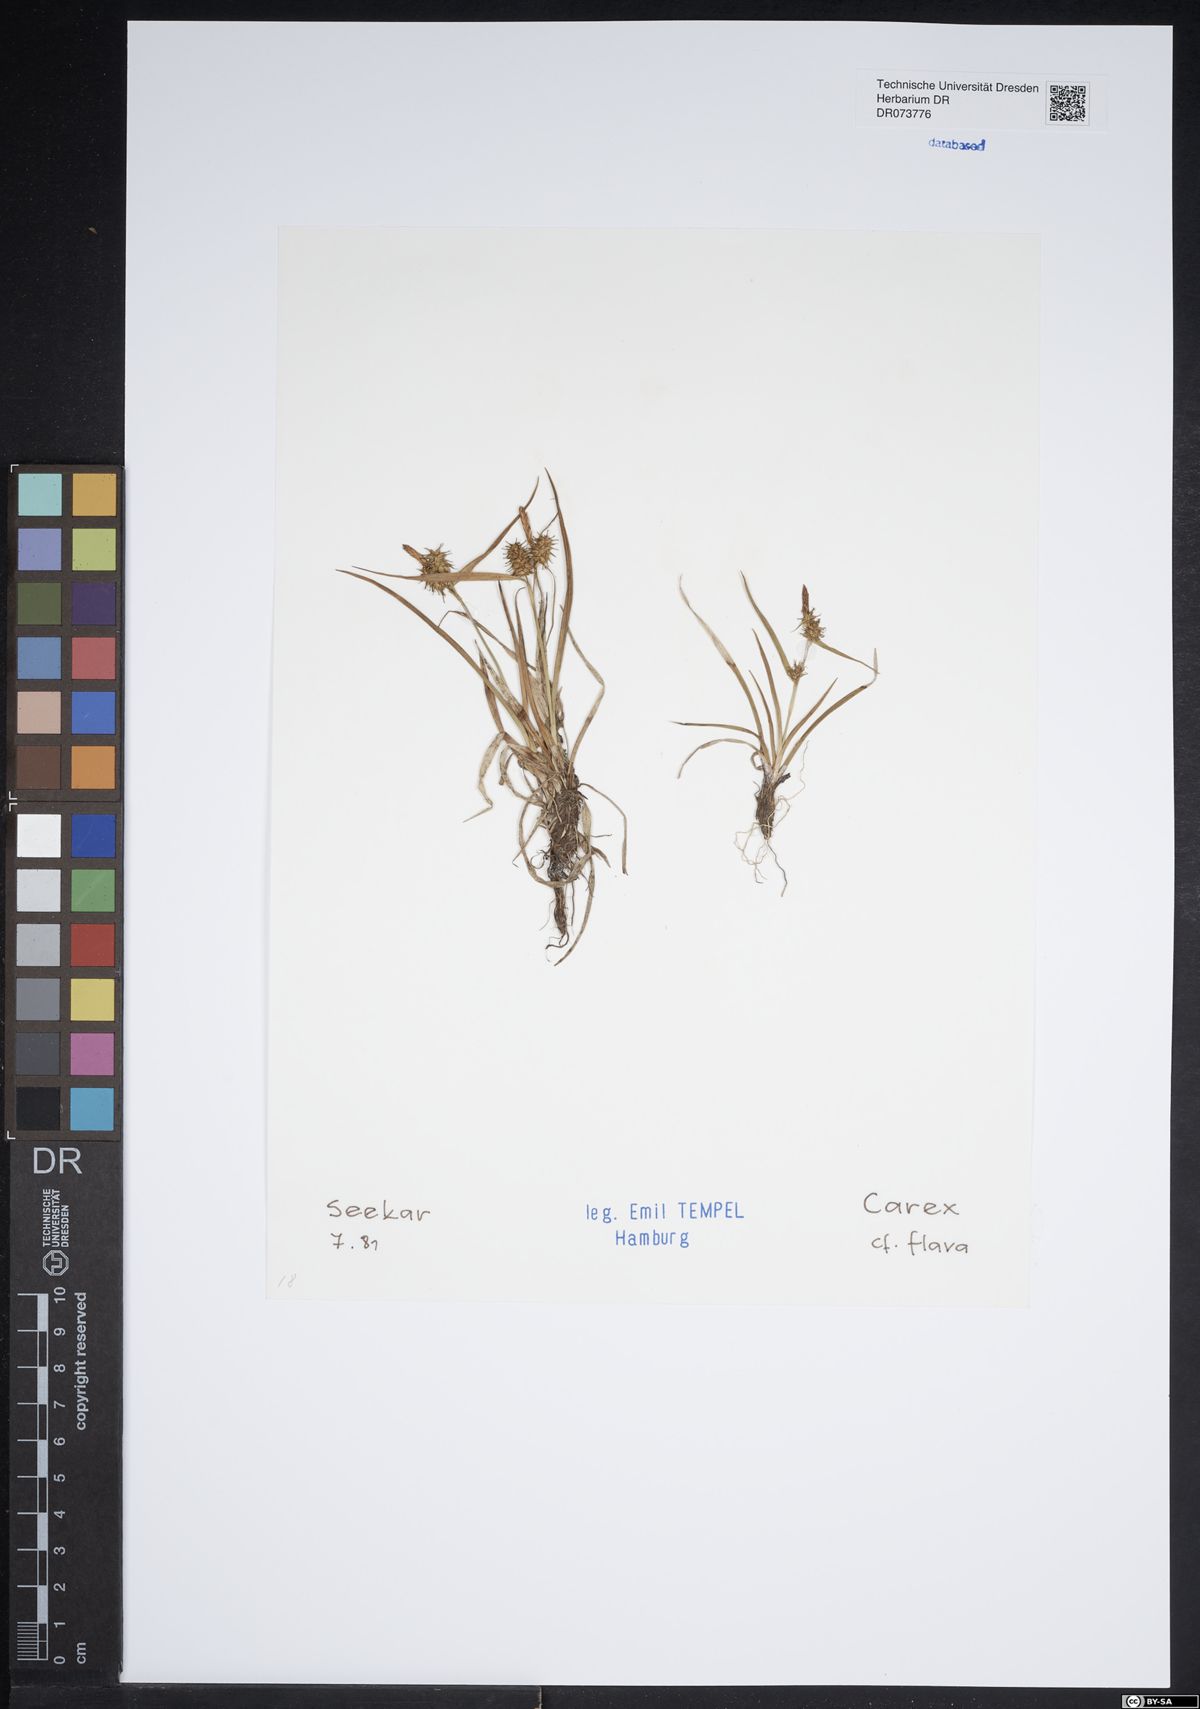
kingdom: Plantae
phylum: Tracheophyta
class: Liliopsida
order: Poales
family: Cyperaceae
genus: Carex
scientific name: Carex flava
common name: Large yellow-sedge
